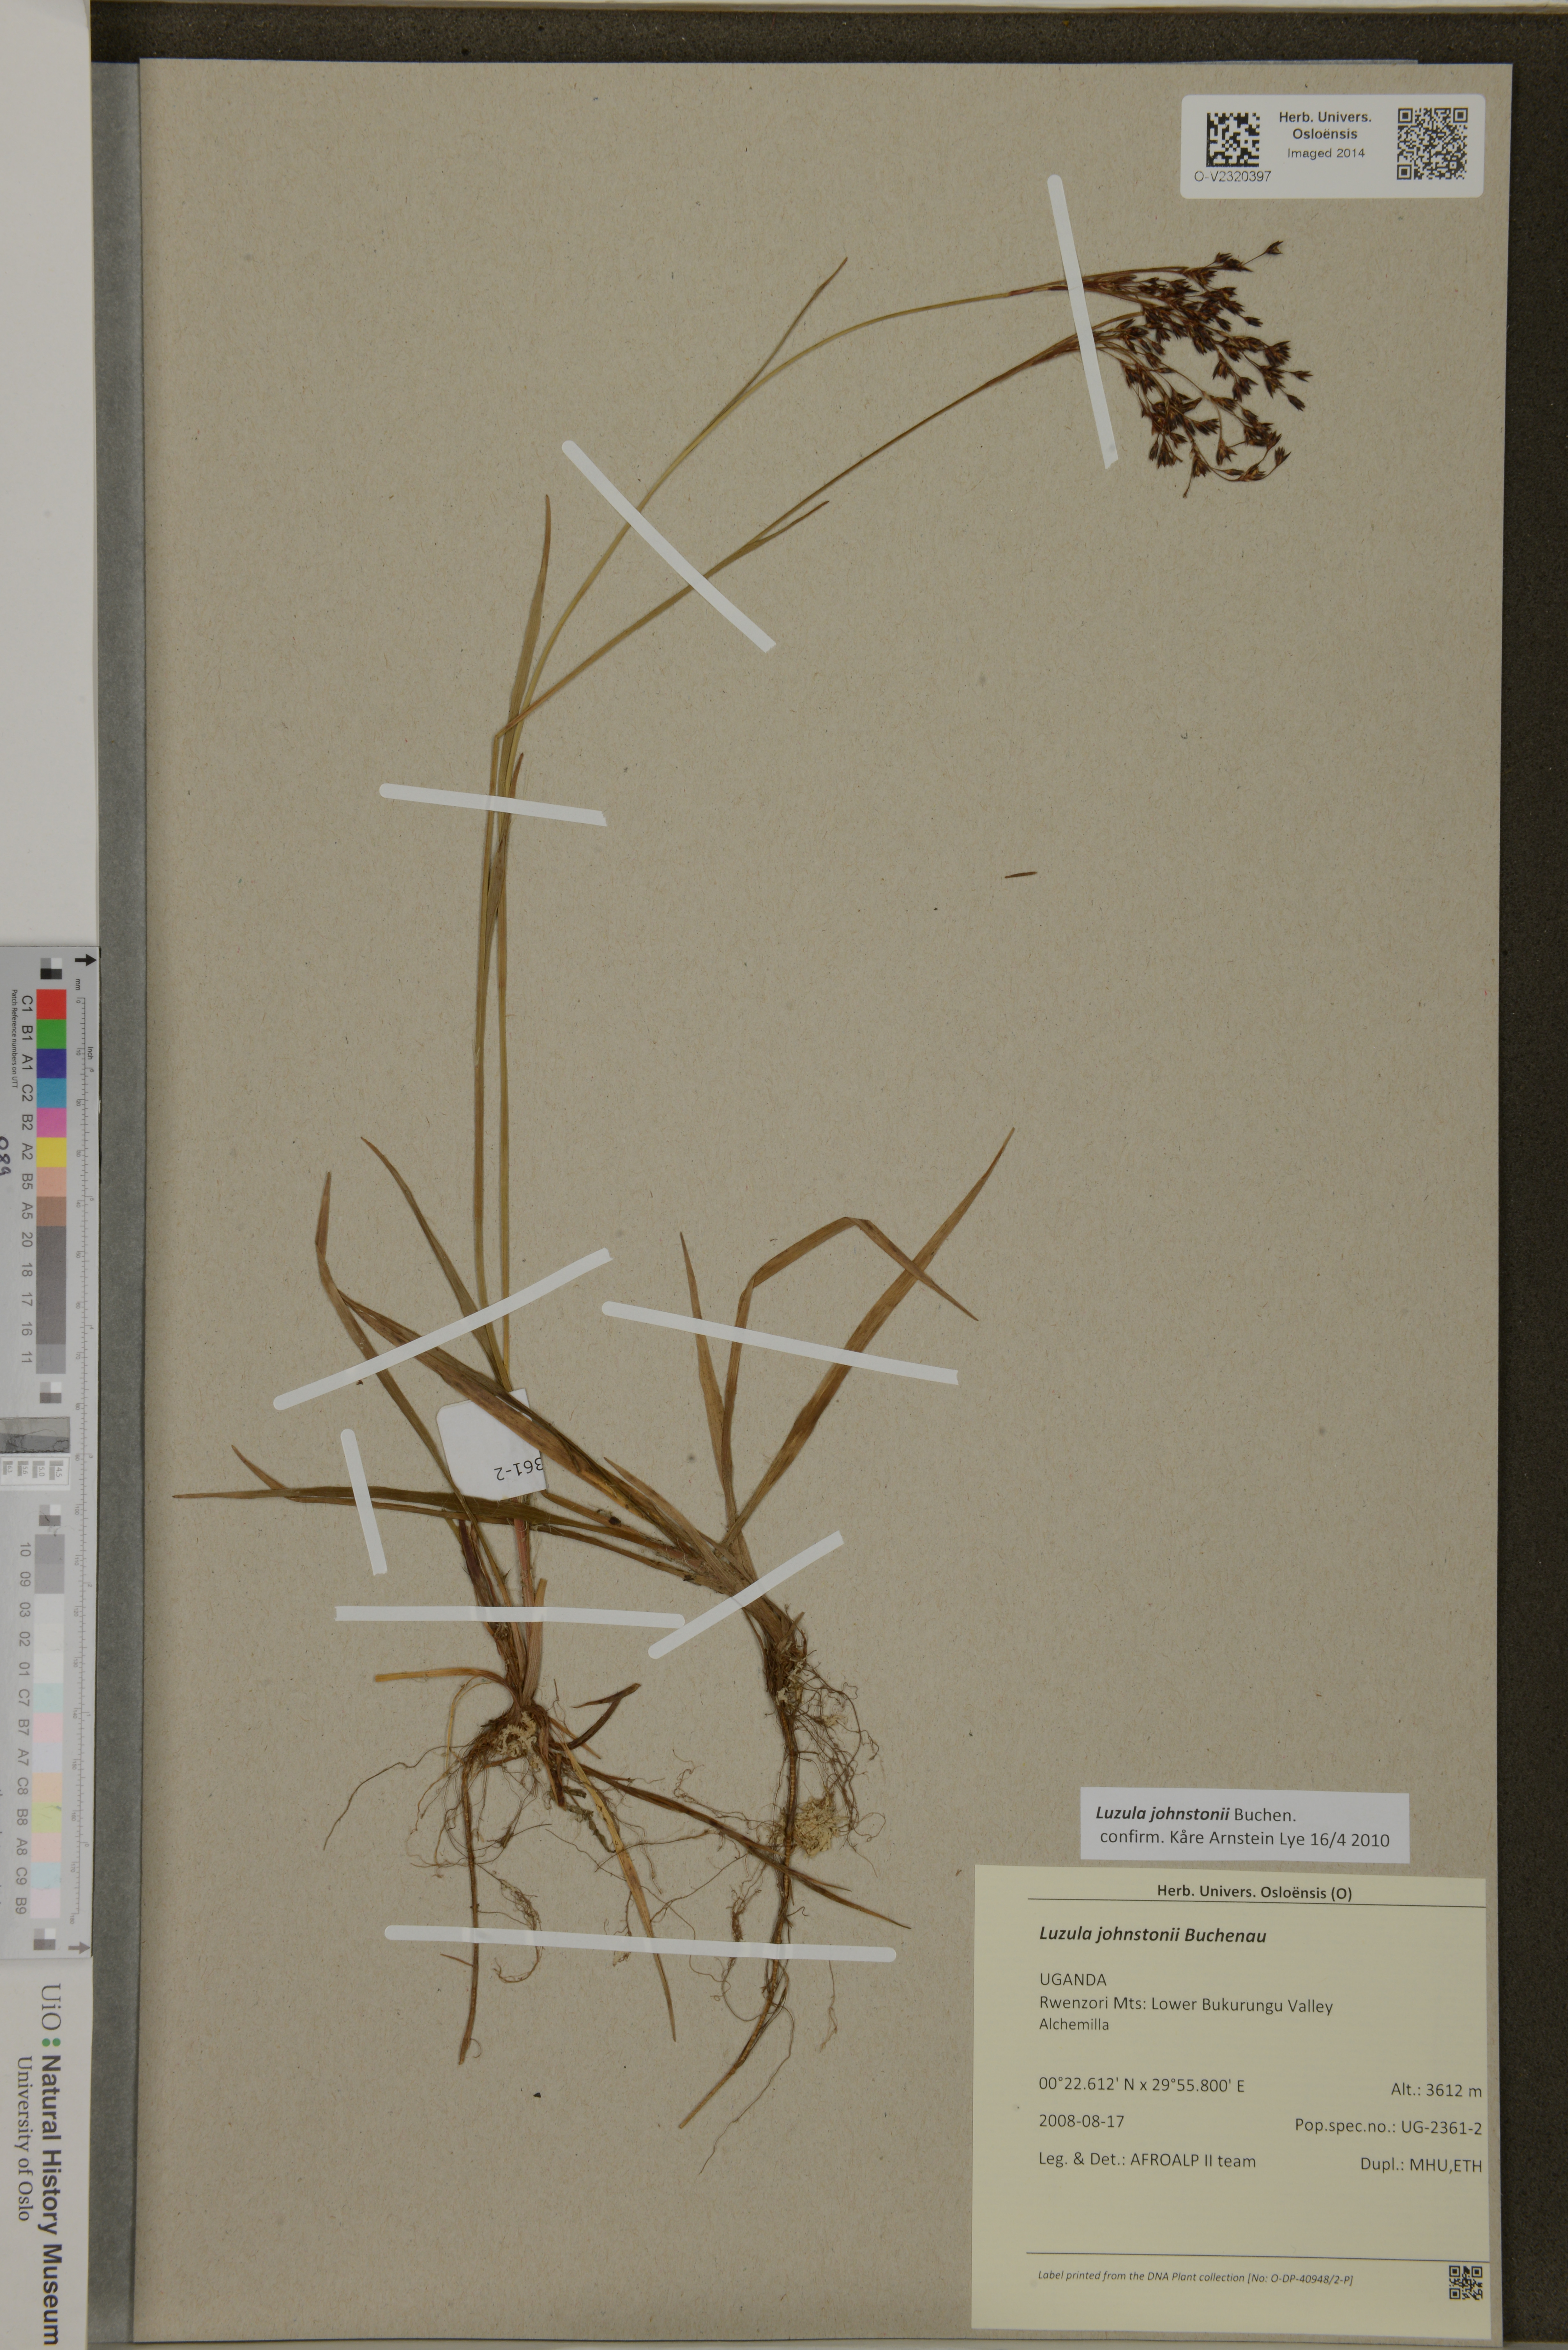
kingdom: Plantae
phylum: Tracheophyta
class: Liliopsida
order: Poales
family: Juncaceae
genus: Luzula
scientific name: Luzula johnstonii
